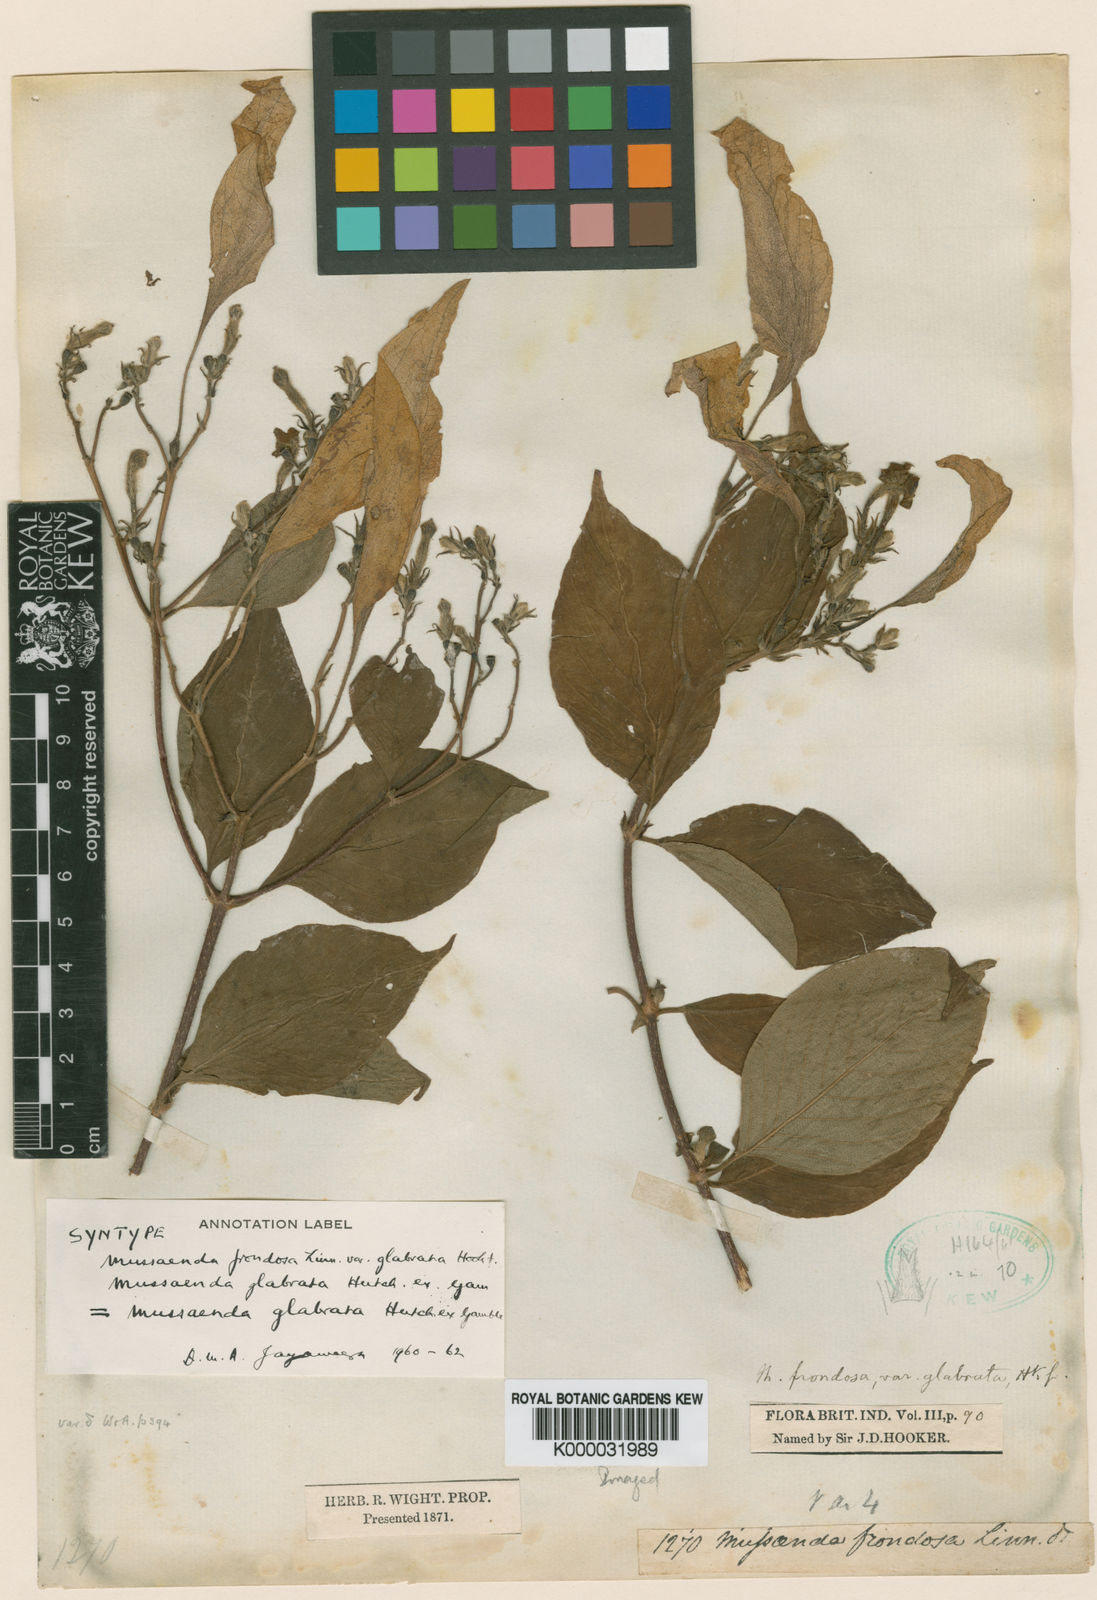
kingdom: Plantae
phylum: Tracheophyta
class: Magnoliopsida
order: Gentianales
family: Rubiaceae
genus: Mussaenda
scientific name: Mussaenda glabrata
